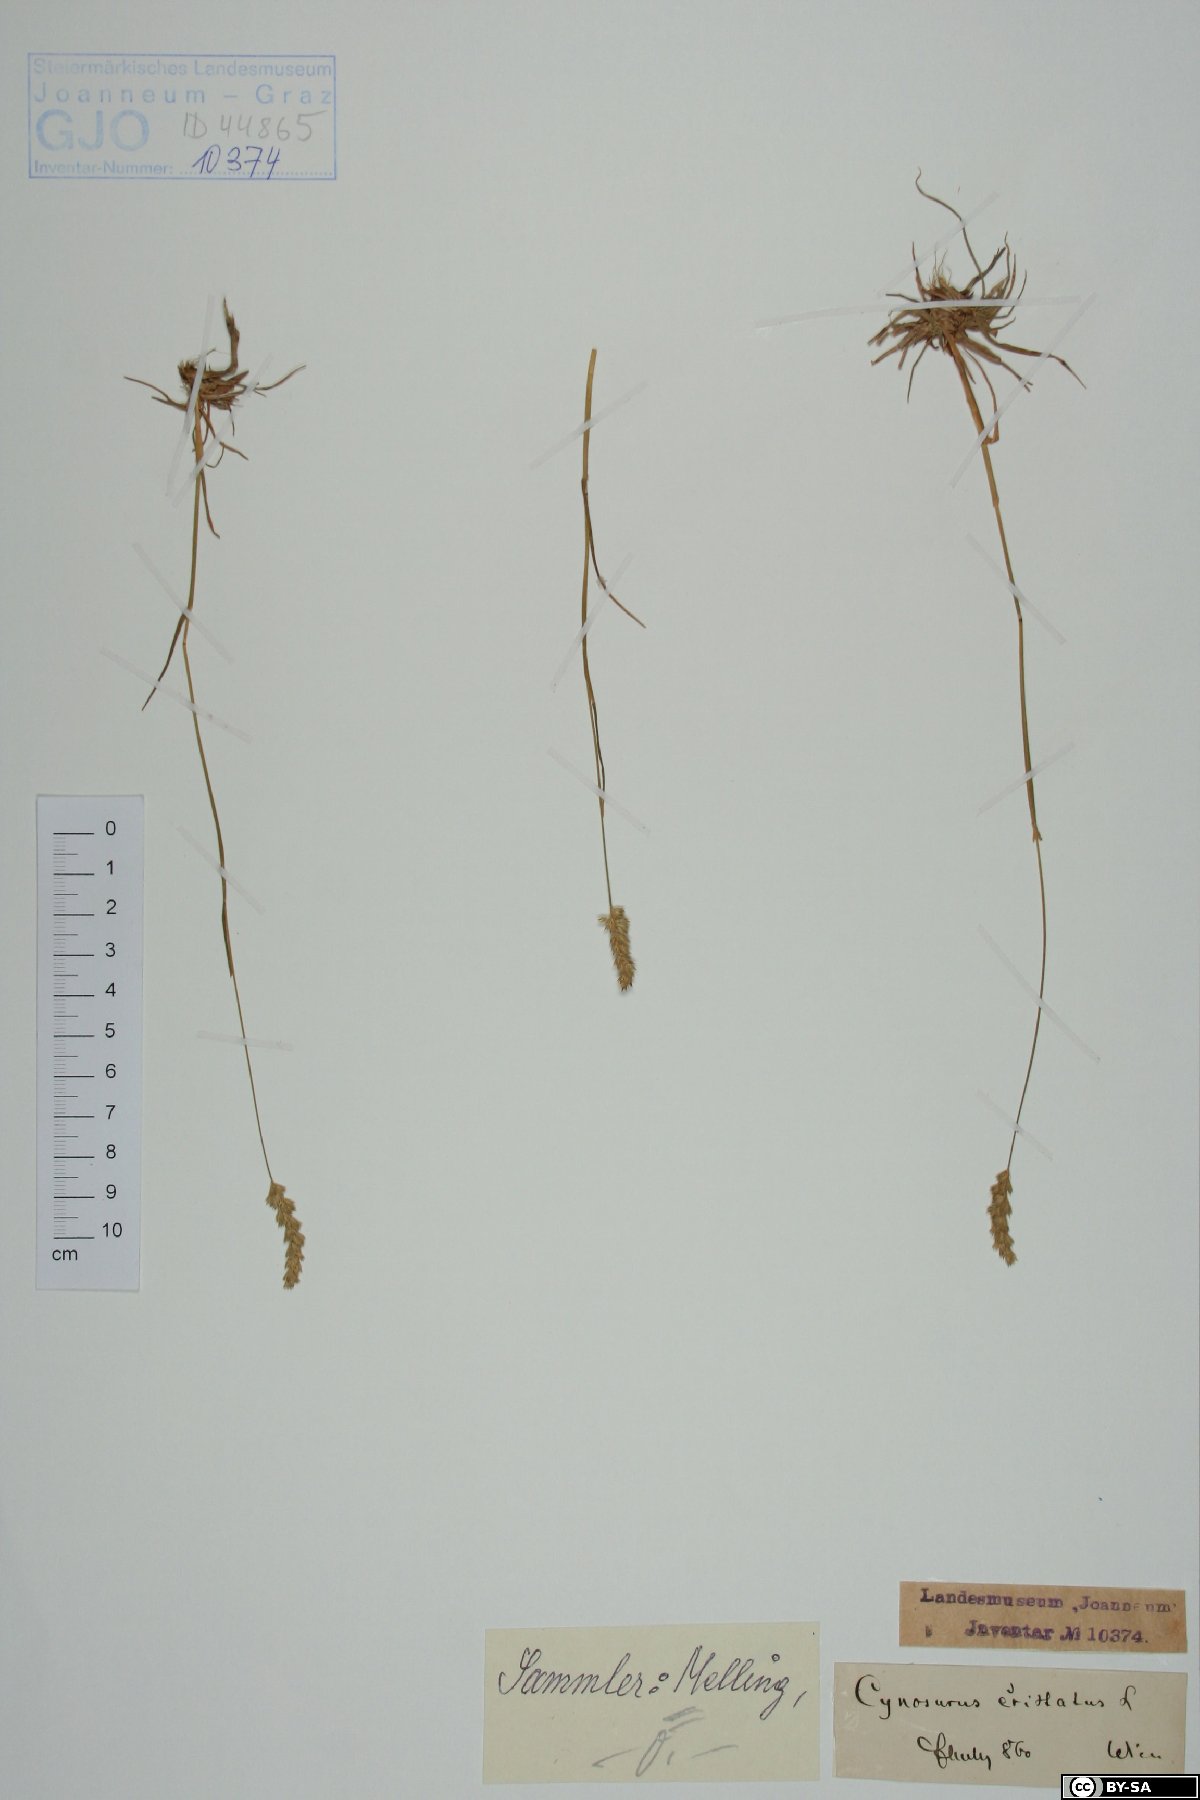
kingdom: Plantae
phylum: Tracheophyta
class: Liliopsida
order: Poales
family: Poaceae
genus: Cynosurus
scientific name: Cynosurus cristatus
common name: Crested dog's-tail
